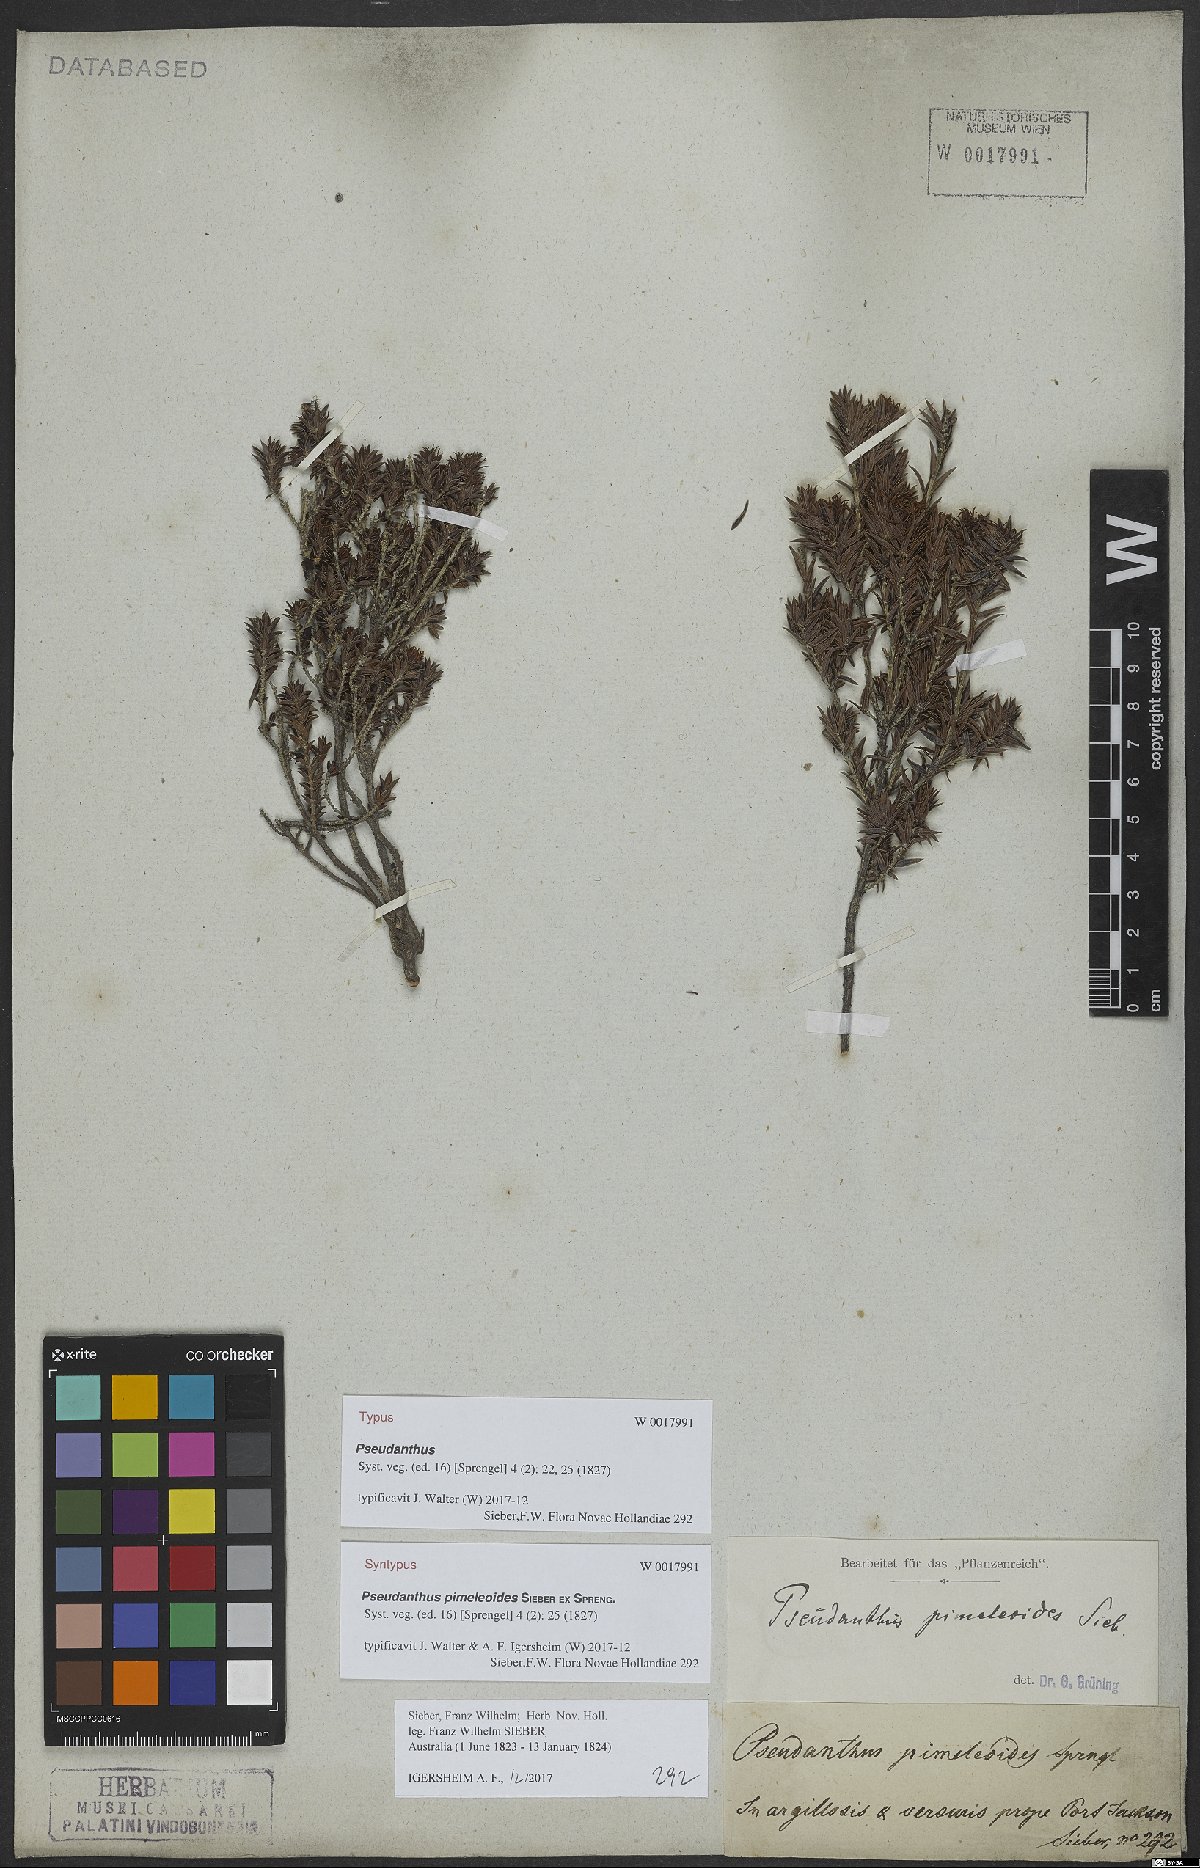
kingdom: Plantae
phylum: Tracheophyta
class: Magnoliopsida
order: Malpighiales
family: Picrodendraceae
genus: Pseudanthus
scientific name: Pseudanthus pimeleoides
